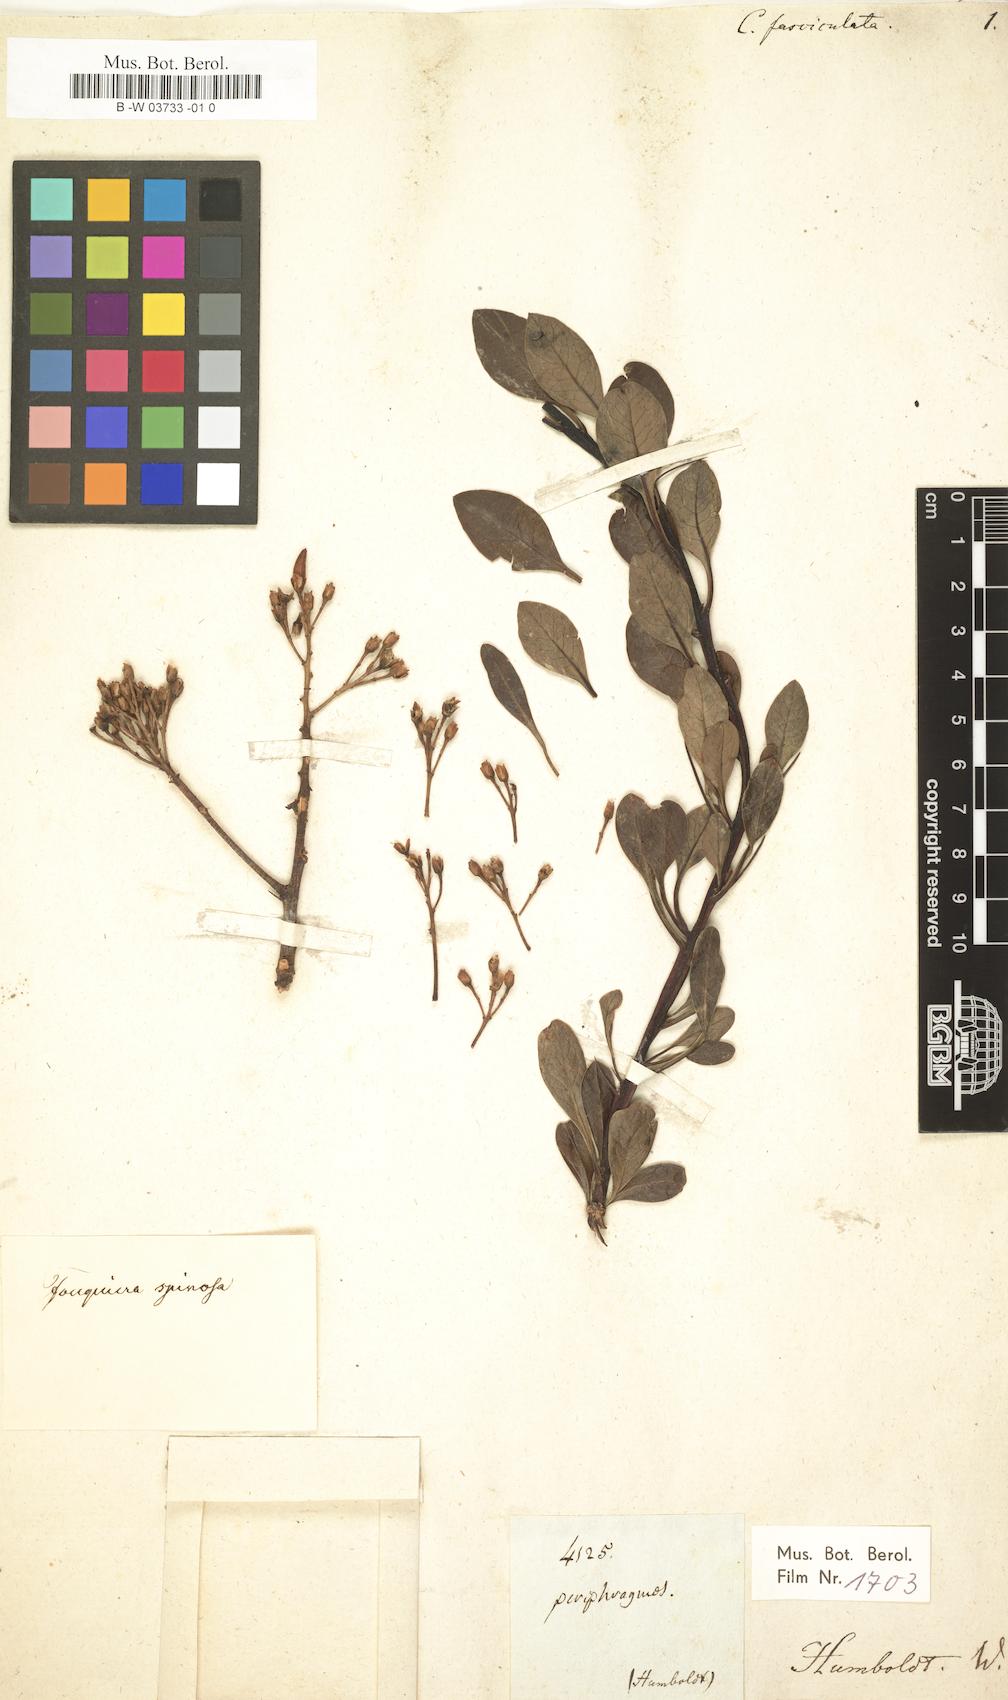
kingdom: Plantae
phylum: Tracheophyta
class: Magnoliopsida
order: Ericales
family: Fouquieriaceae
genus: Fouquieria
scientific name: Fouquieria fasciculata
